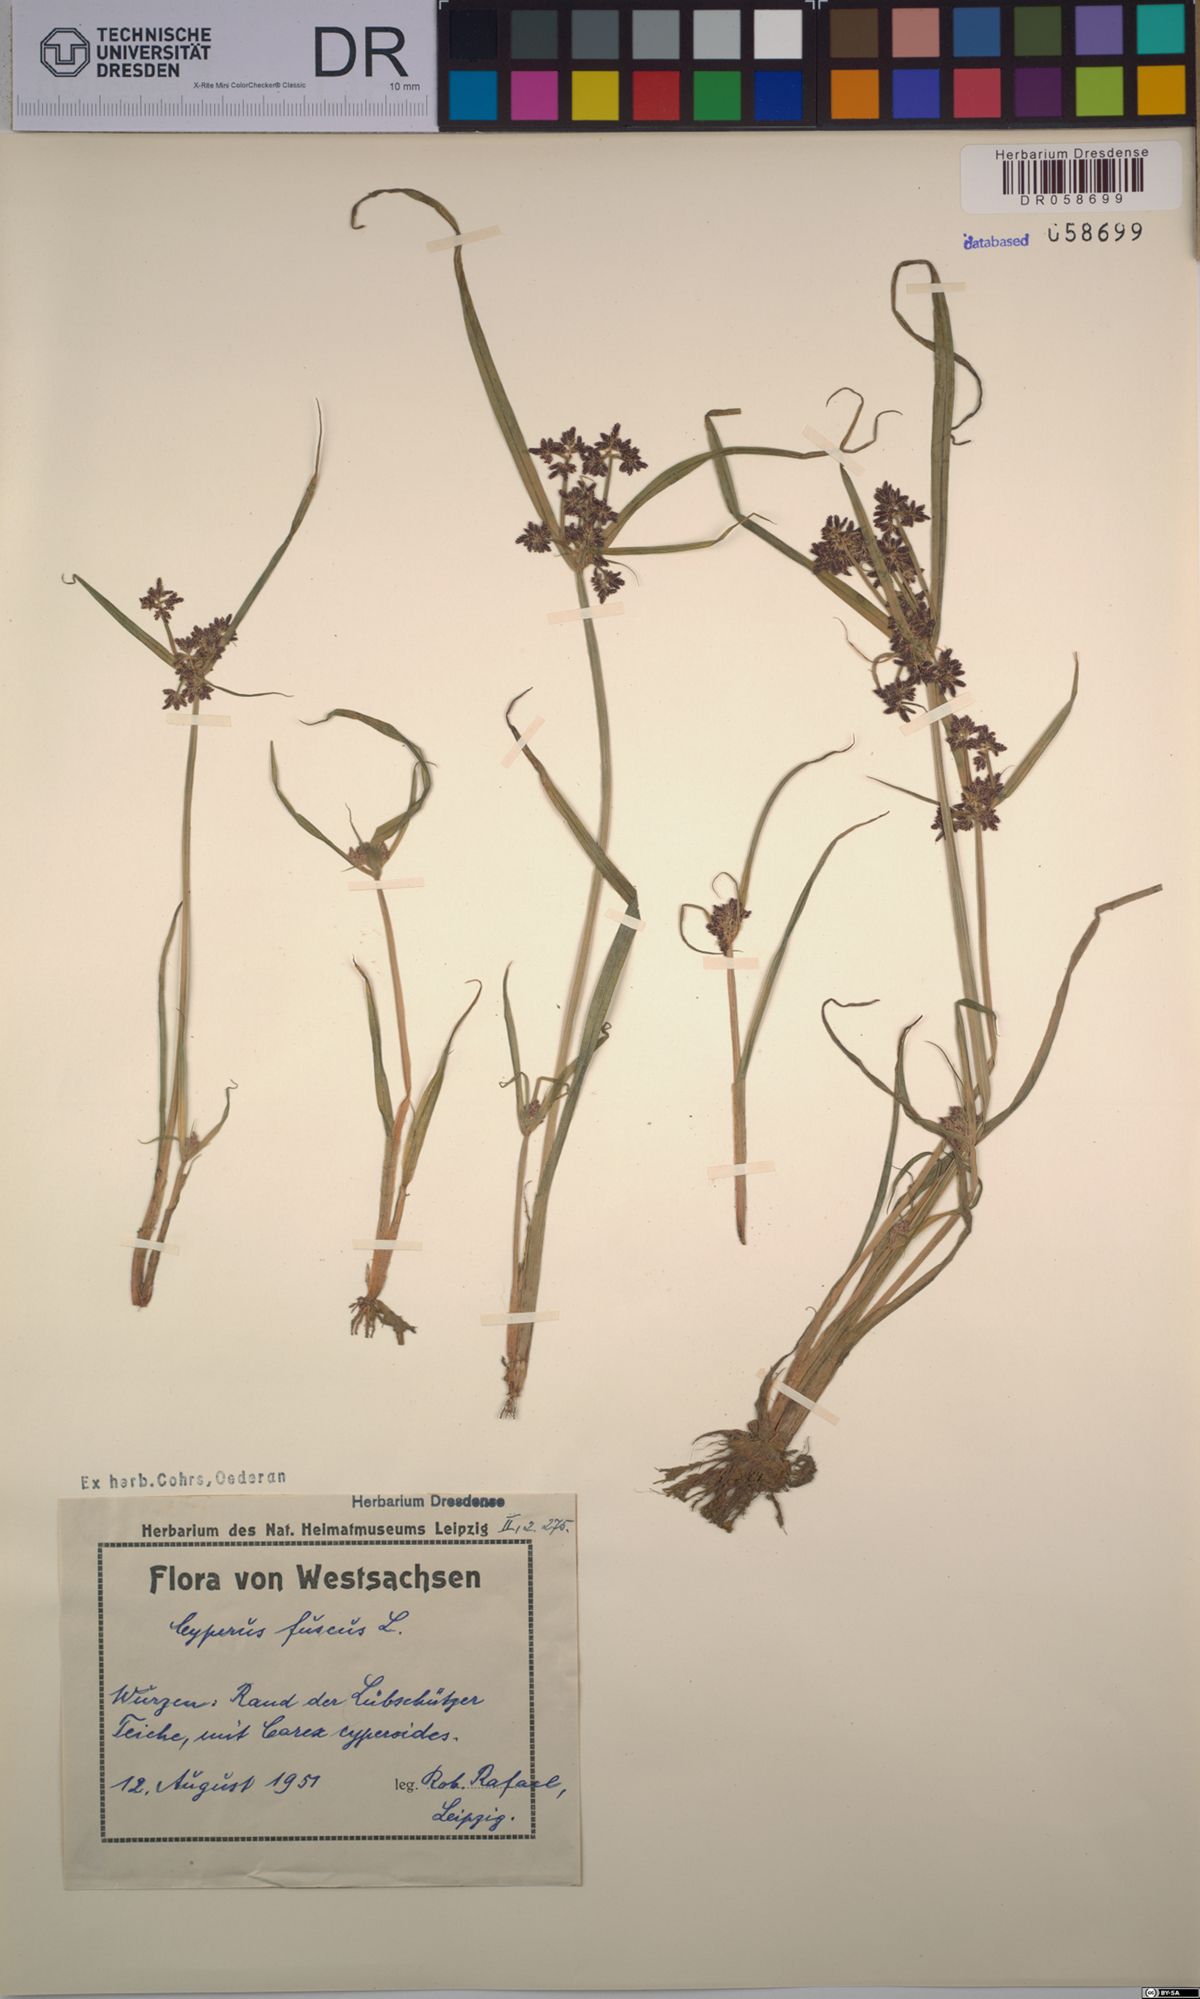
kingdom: Plantae
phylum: Tracheophyta
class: Liliopsida
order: Poales
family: Cyperaceae
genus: Cyperus
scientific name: Cyperus fuscus
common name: Brown galingale
